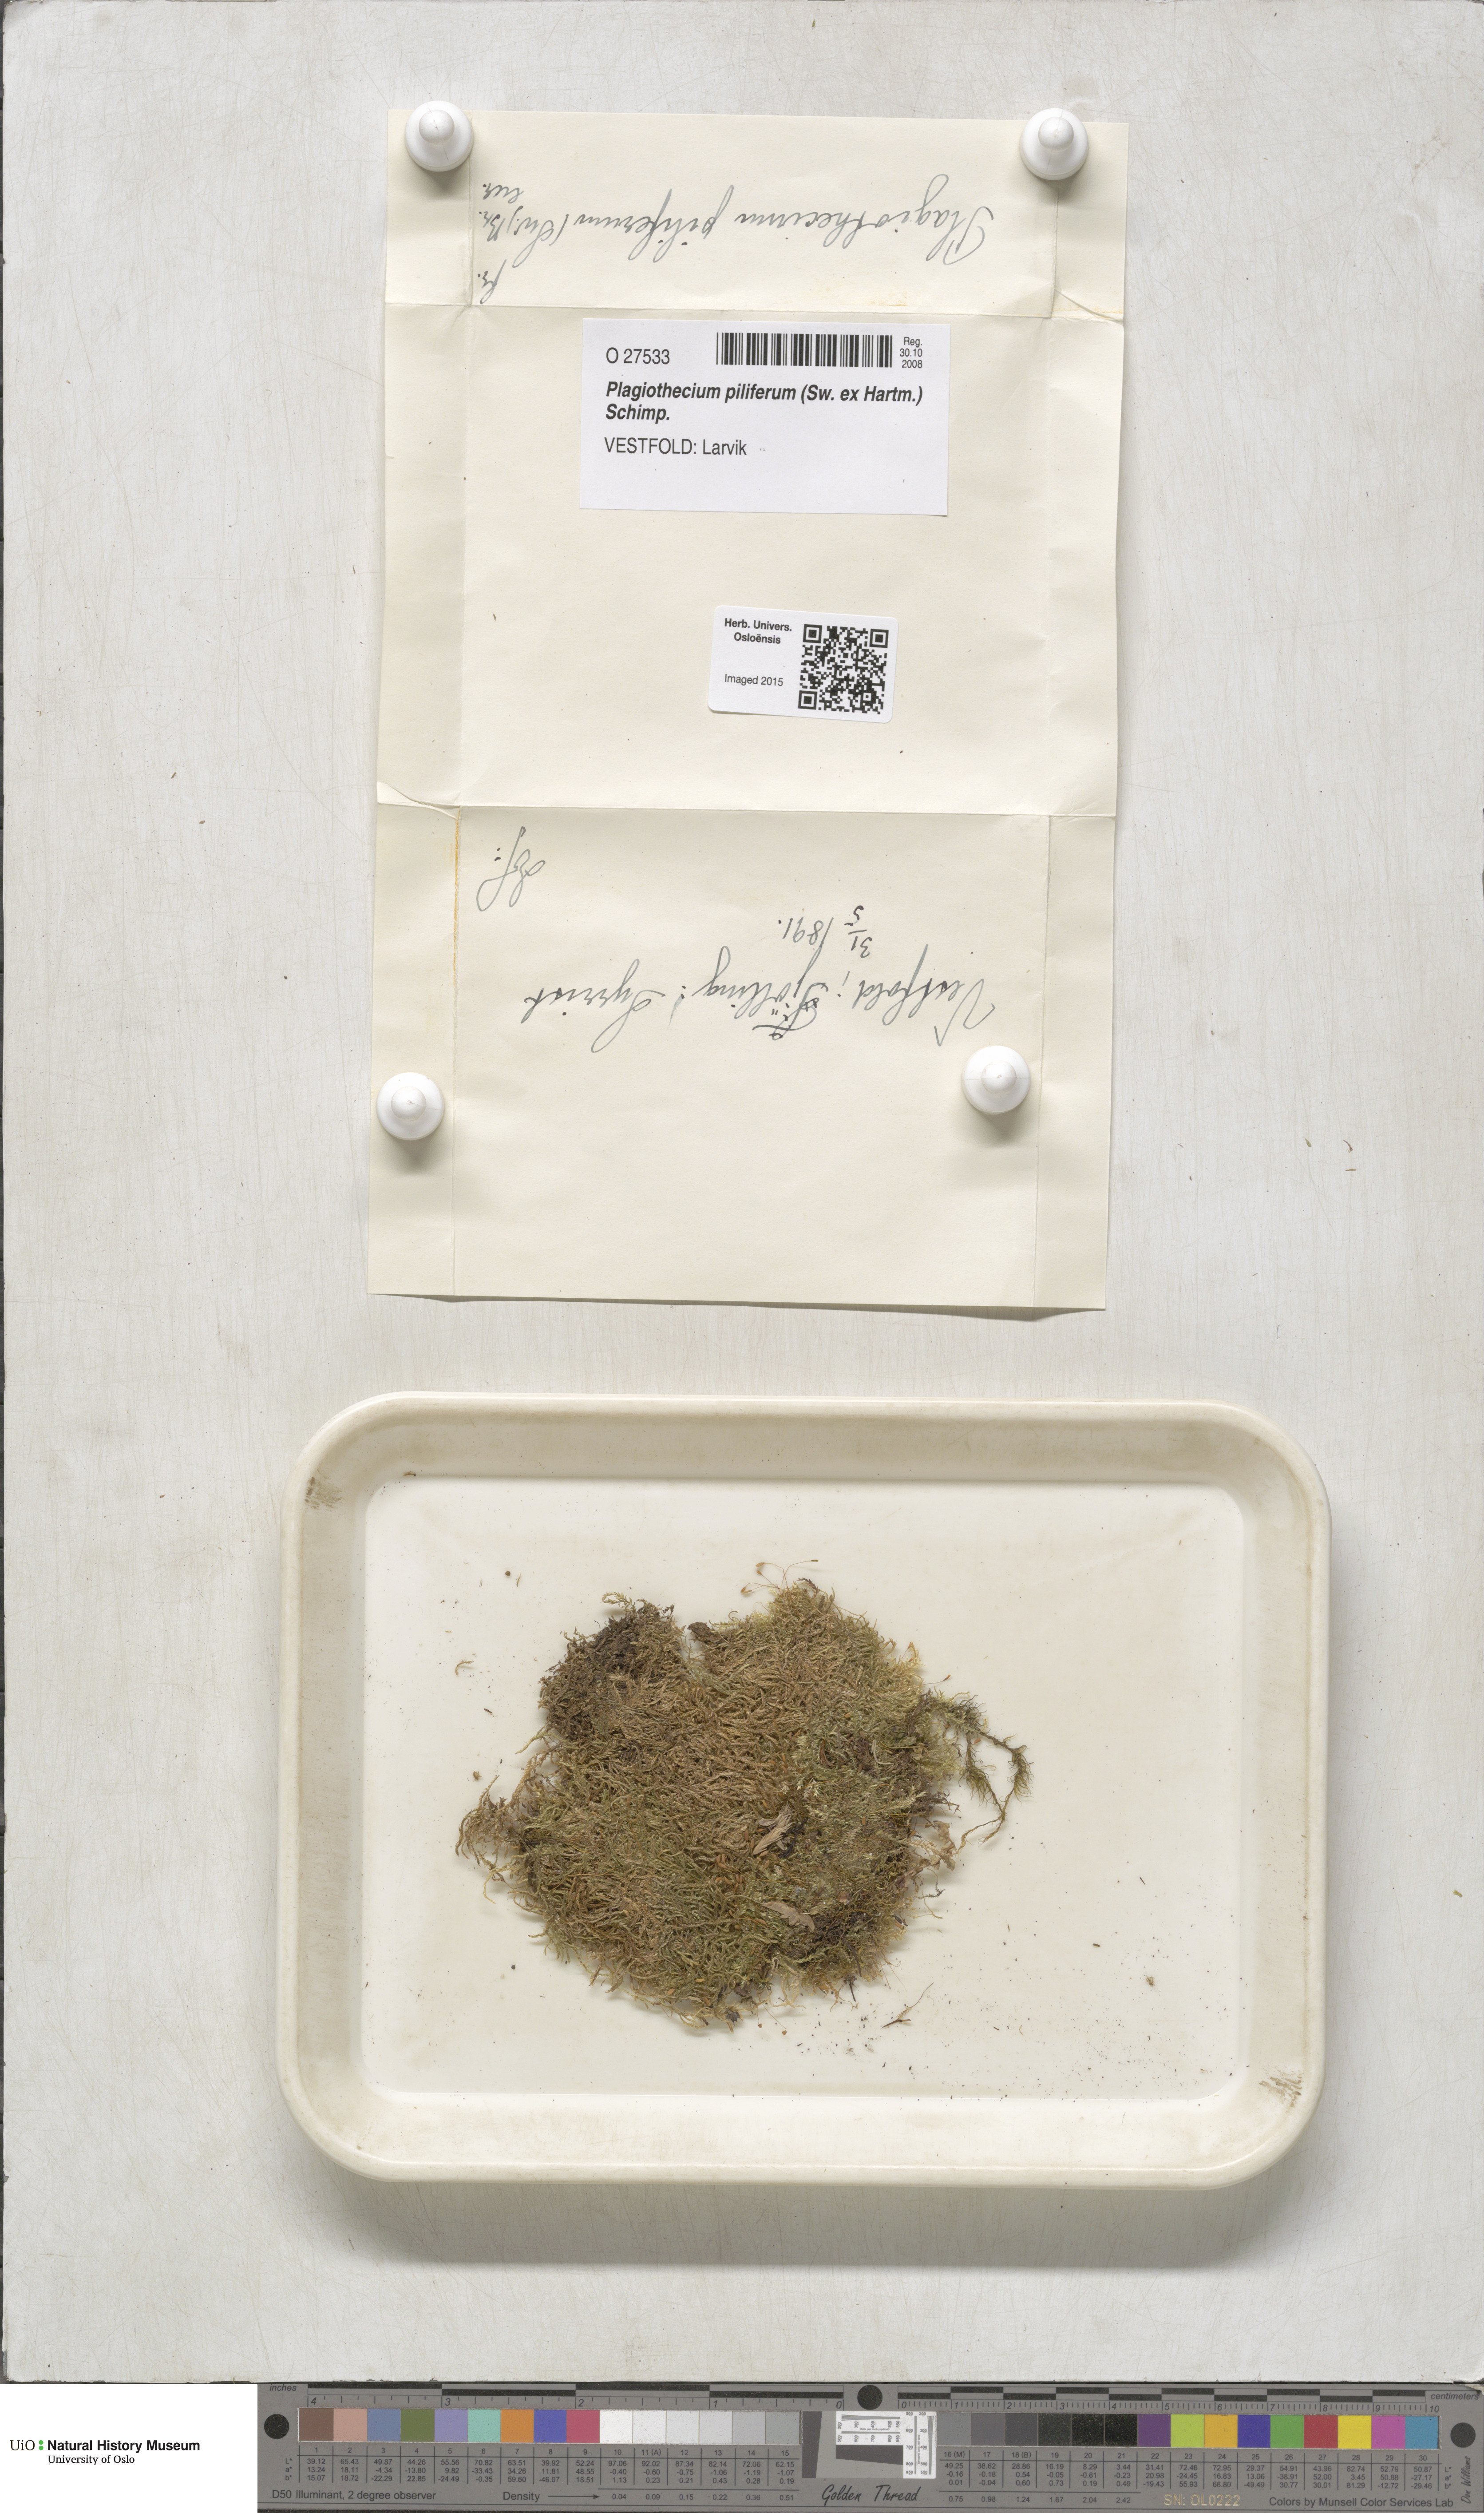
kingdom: Plantae
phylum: Bryophyta
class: Bryopsida
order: Hypnales
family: Plagiotheciaceae
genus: Rectithecium
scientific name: Rectithecium piliferum
